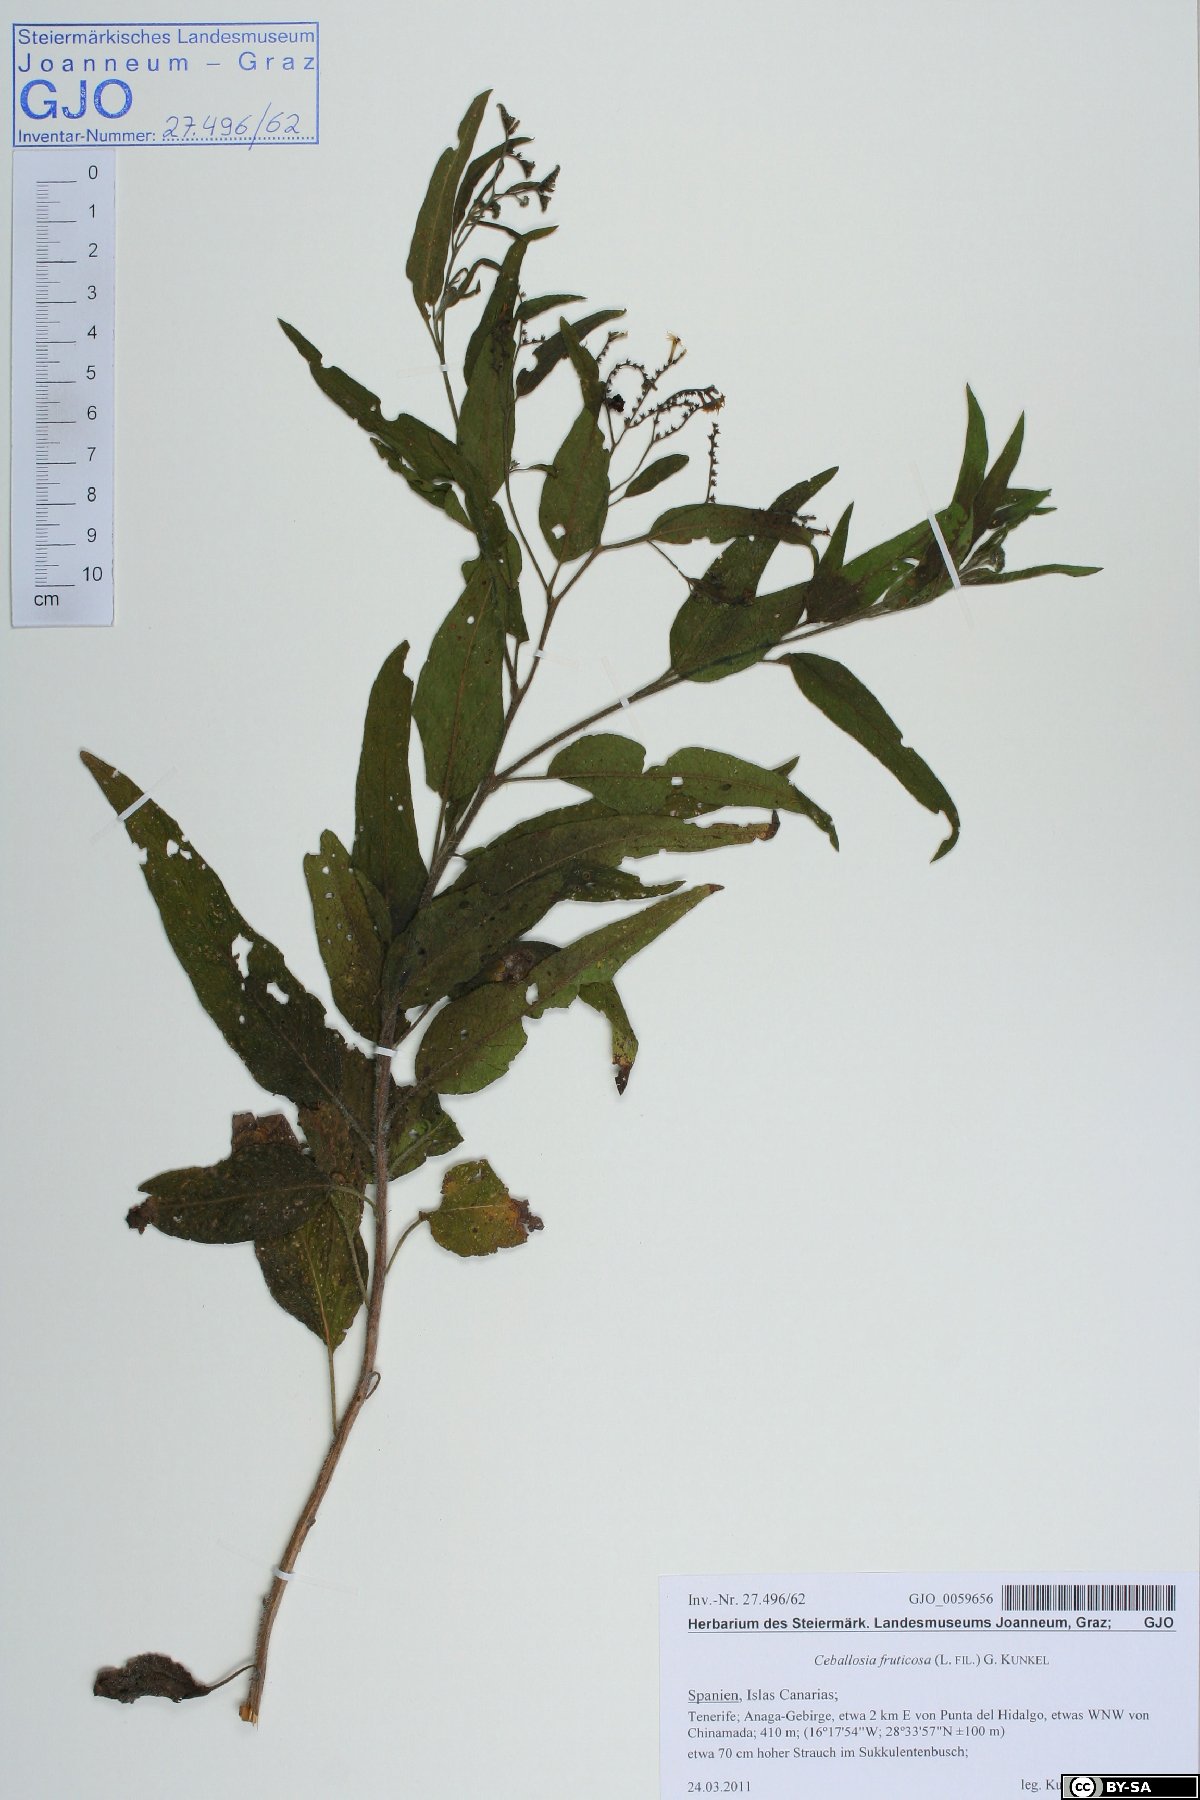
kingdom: Plantae
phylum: Tracheophyta
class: Magnoliopsida
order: Boraginales
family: Heliotropiaceae
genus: Heliotropium
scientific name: Heliotropium messerschmidioides
